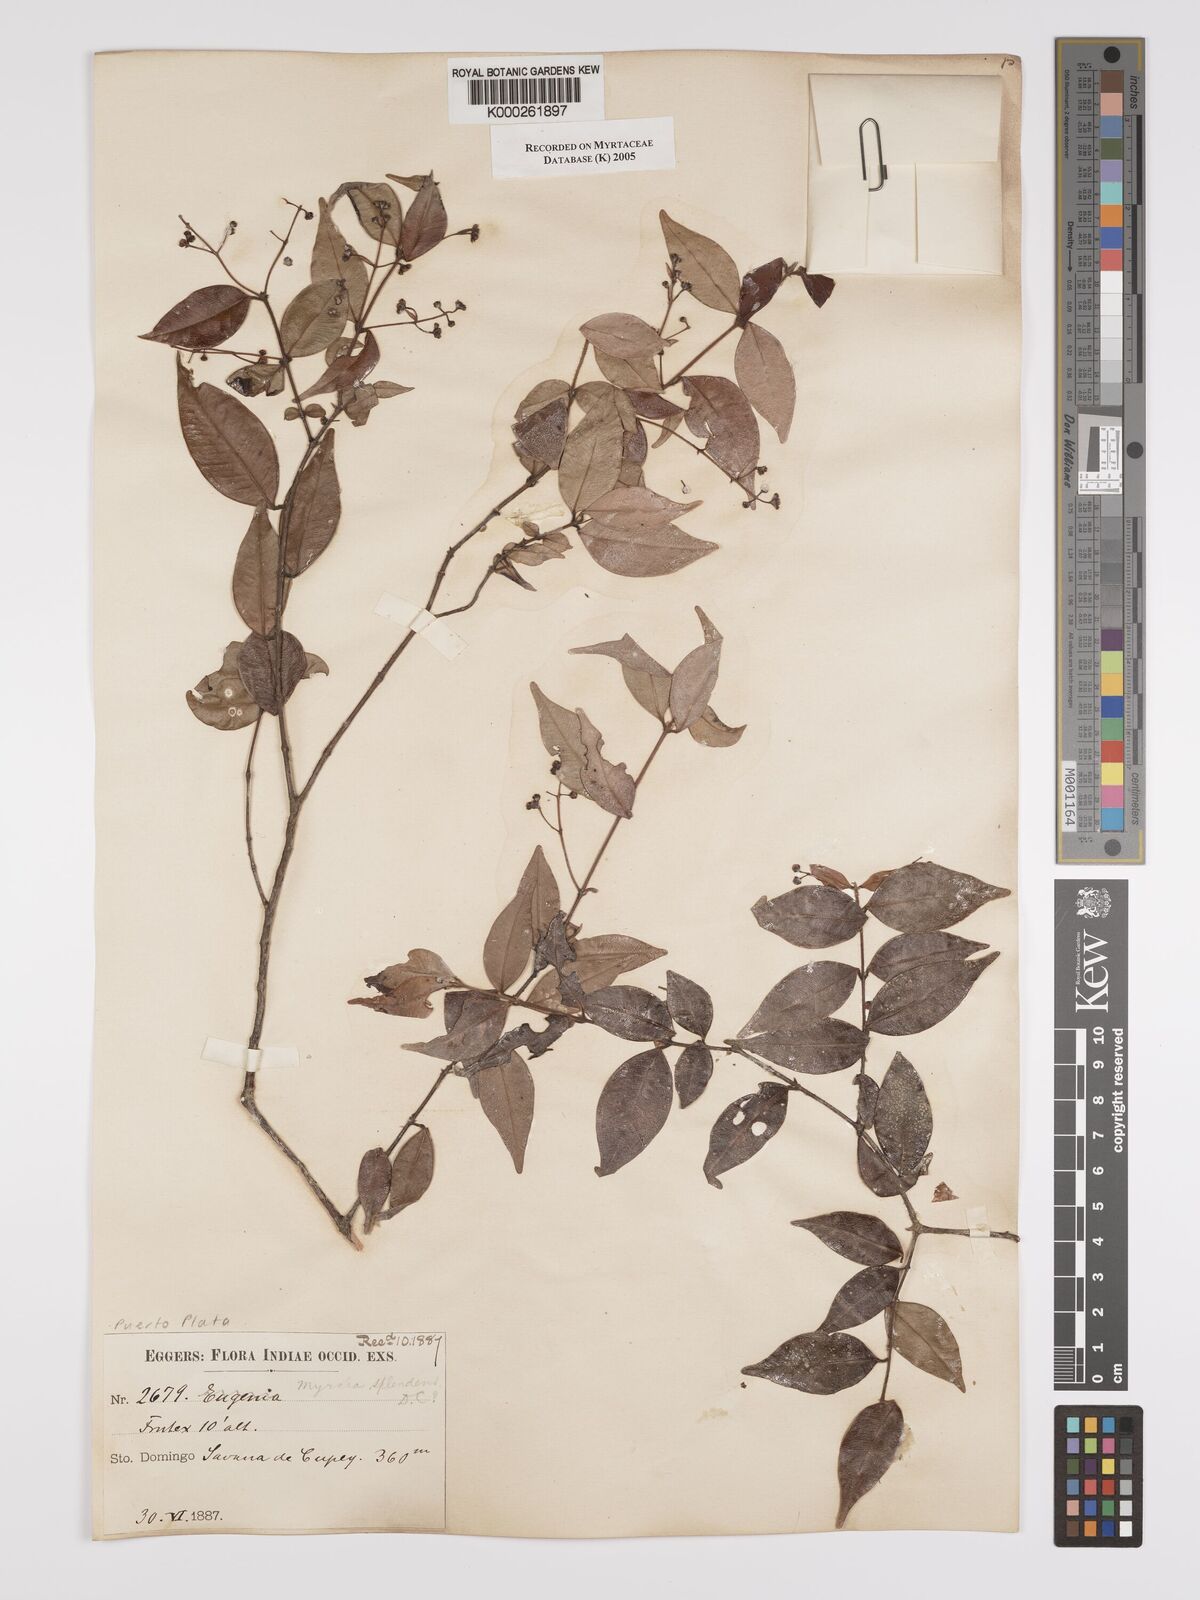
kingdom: Plantae
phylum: Tracheophyta
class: Magnoliopsida
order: Myrtales
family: Myrtaceae
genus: Myrcia
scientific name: Myrcia splendens
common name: Surinam cherry
